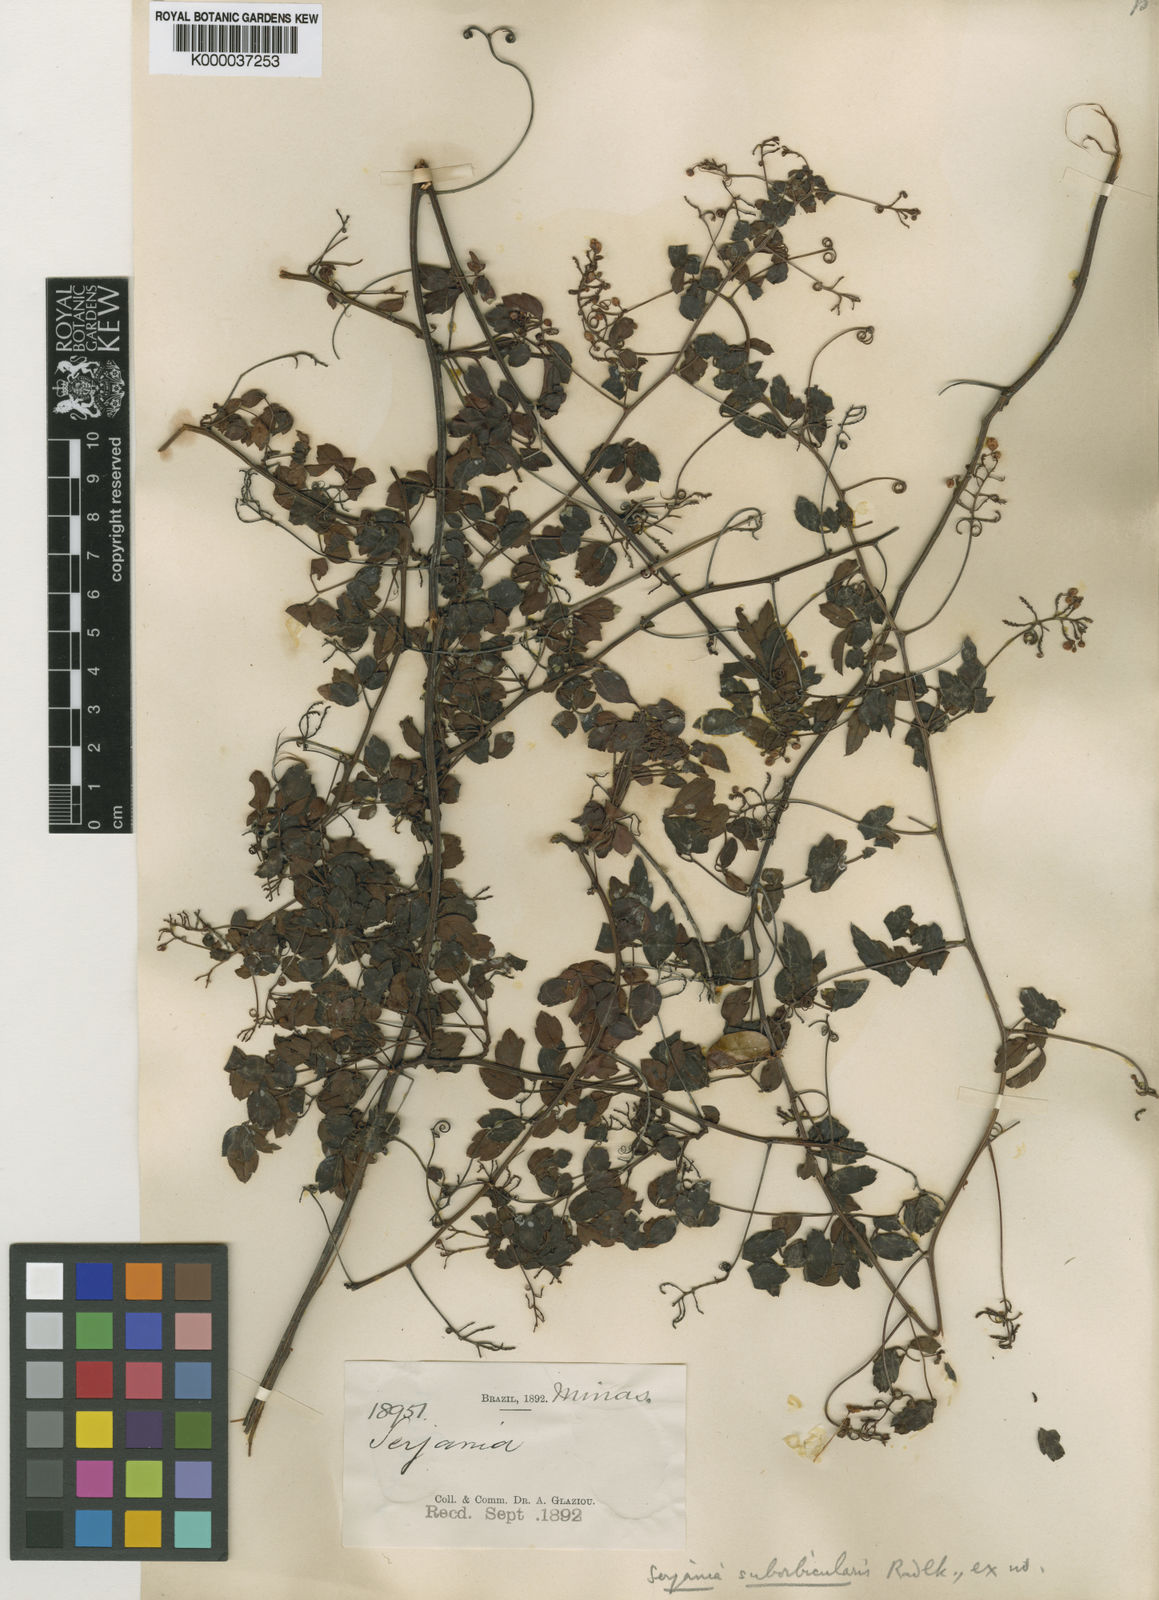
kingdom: Plantae
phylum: Tracheophyta
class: Magnoliopsida
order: Sapindales
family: Sapindaceae
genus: Serjania
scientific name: Serjania suborbicularis
